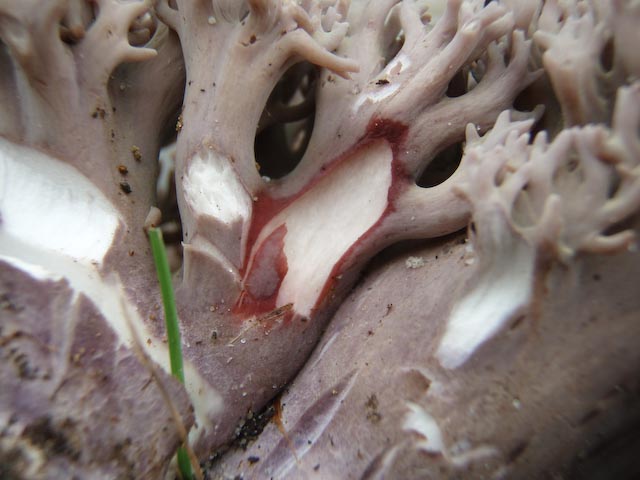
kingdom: Fungi
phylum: Basidiomycota
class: Agaricomycetes
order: Gomphales
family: Gomphaceae
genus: Ramaria
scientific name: Ramaria fumigata
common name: violet koralsvamp
